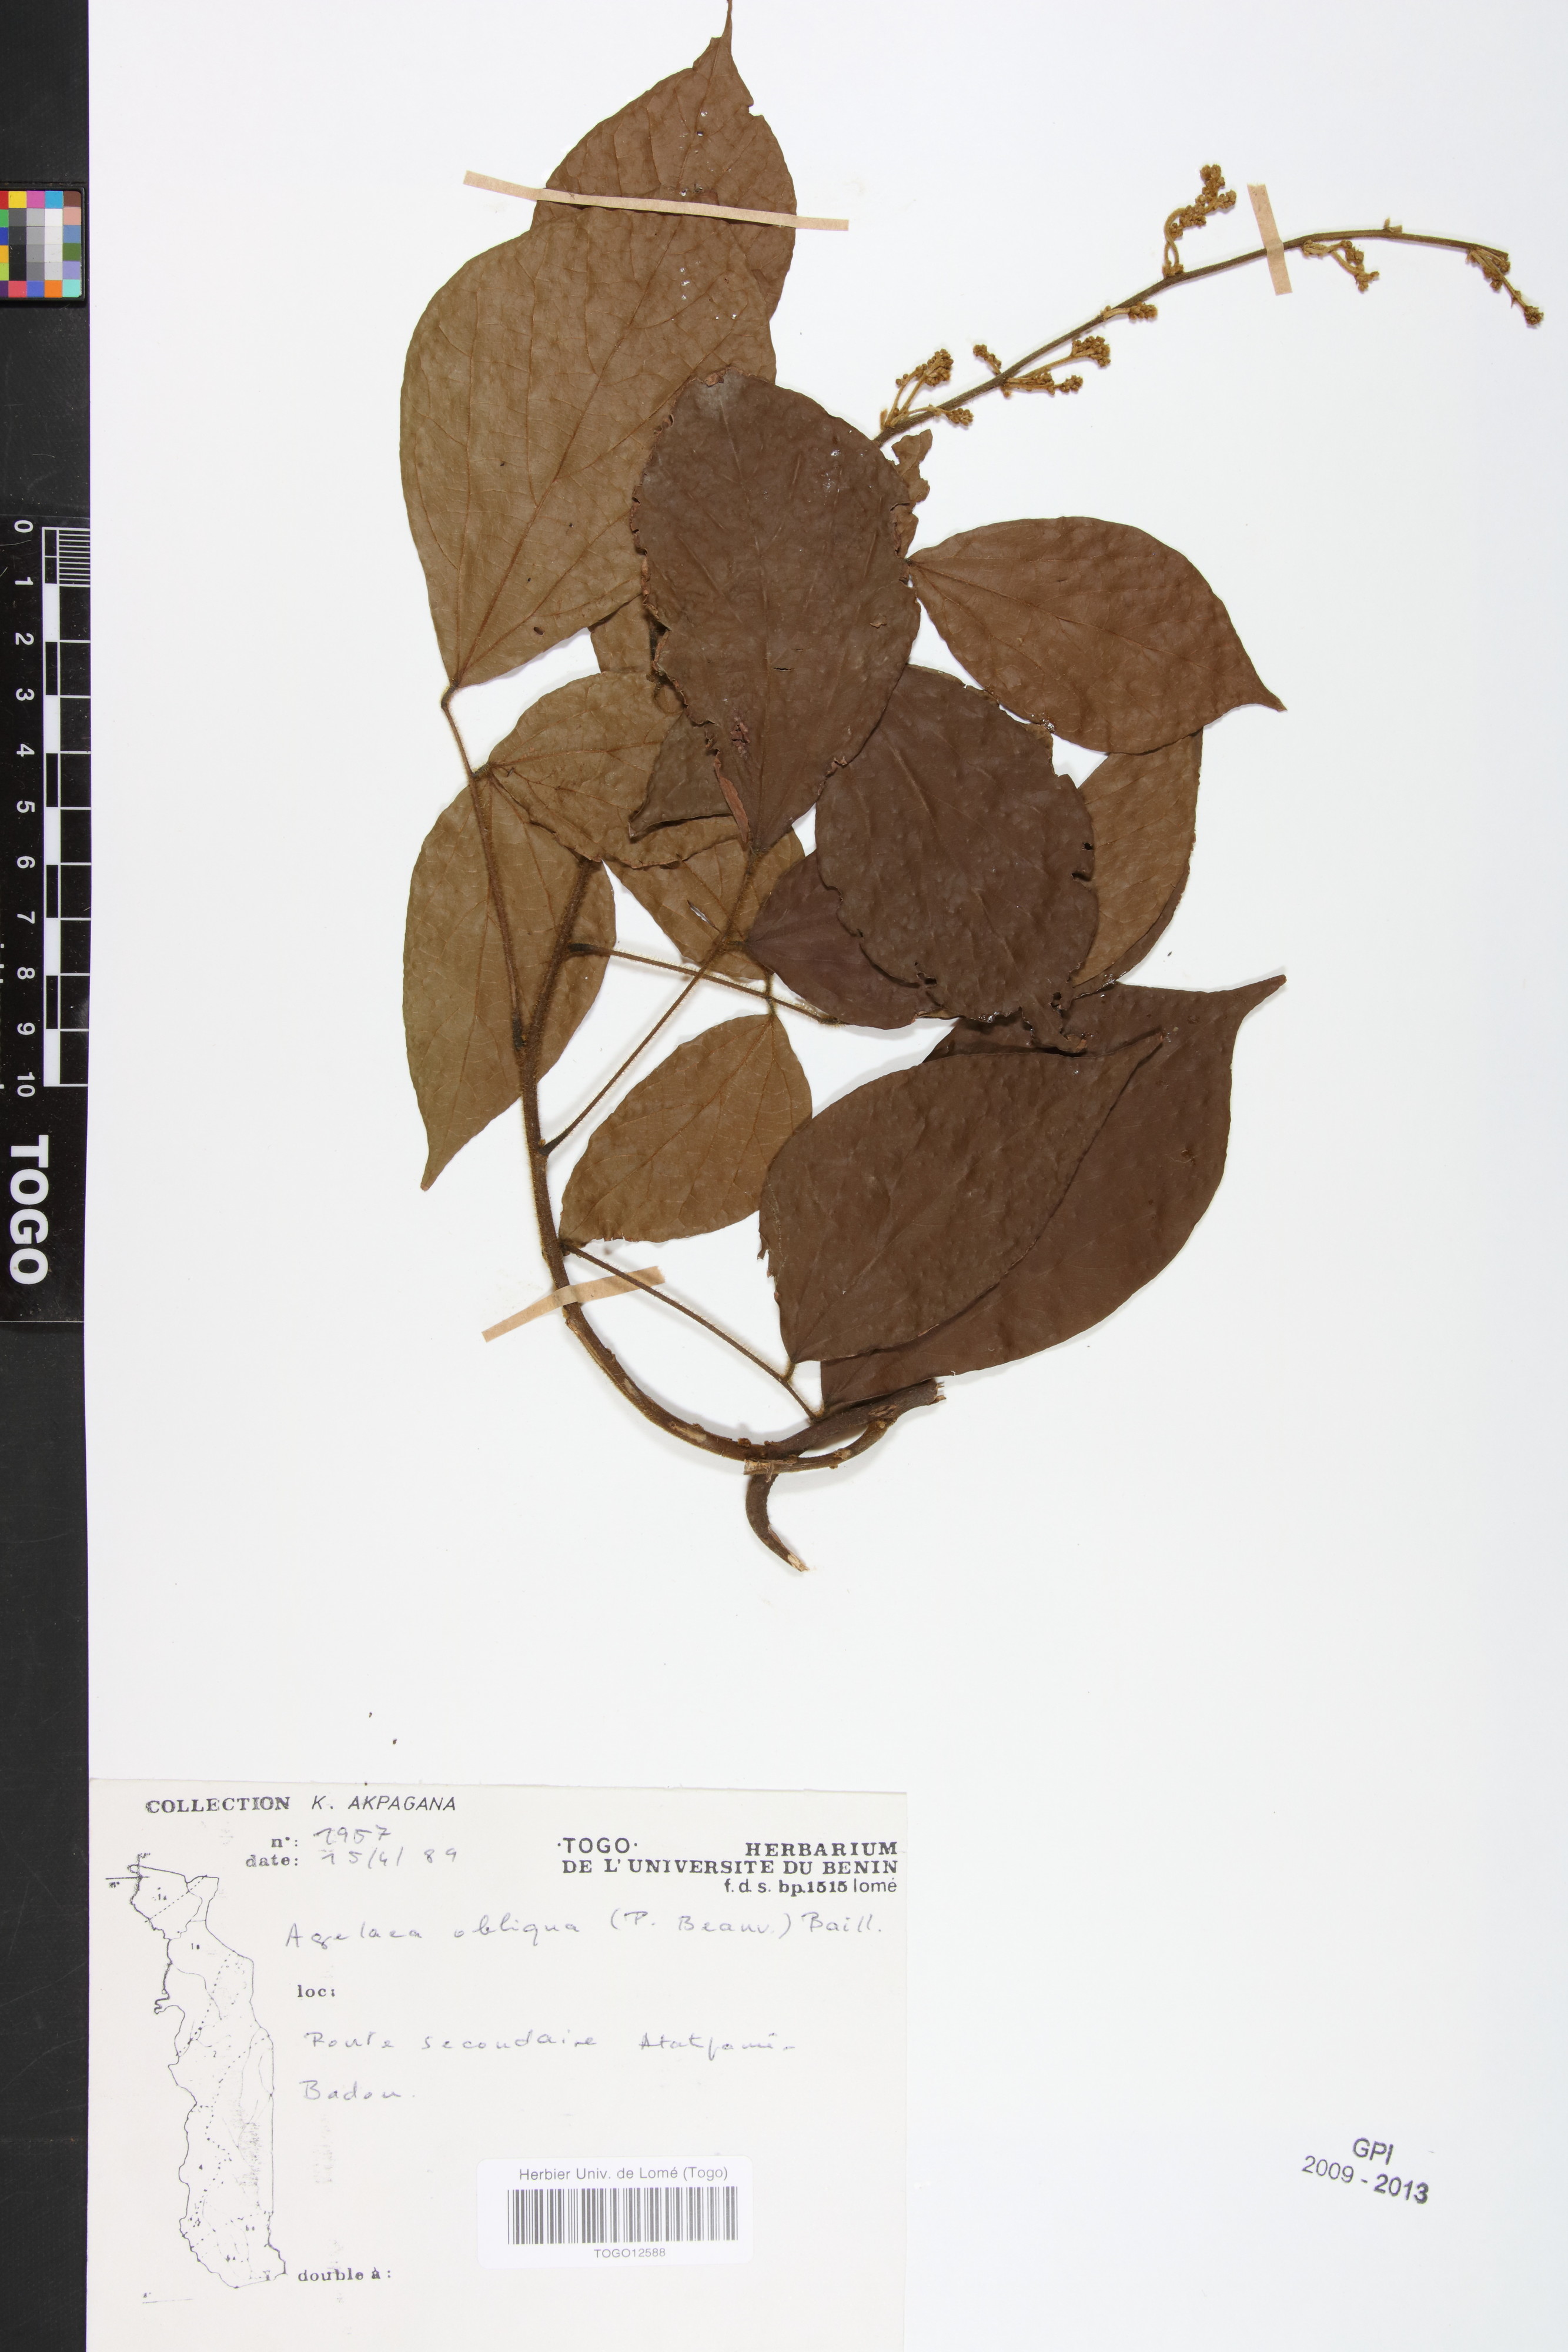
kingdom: Plantae
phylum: Tracheophyta
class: Magnoliopsida
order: Oxalidales
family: Connaraceae
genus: Agelaea
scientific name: Agelaea pentagyna
